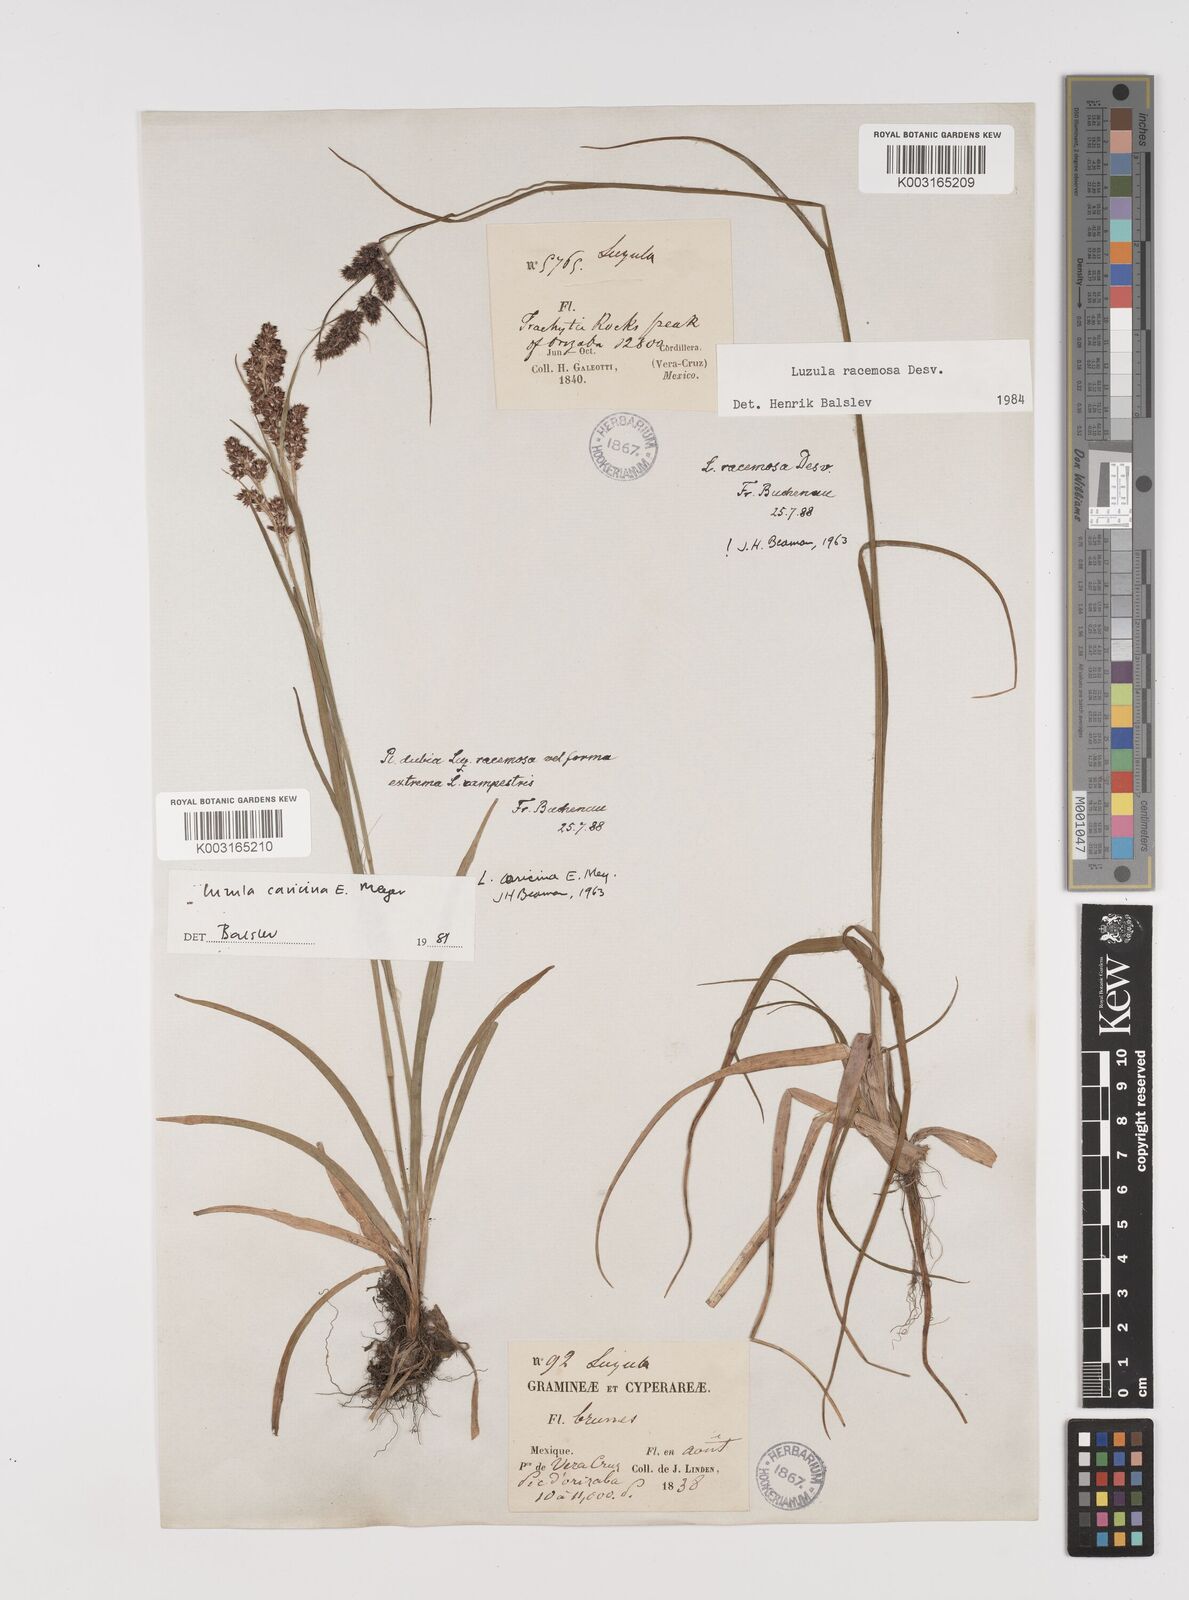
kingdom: Plantae
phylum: Tracheophyta
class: Liliopsida
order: Poales
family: Juncaceae
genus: Luzula
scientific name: Luzula caricina
